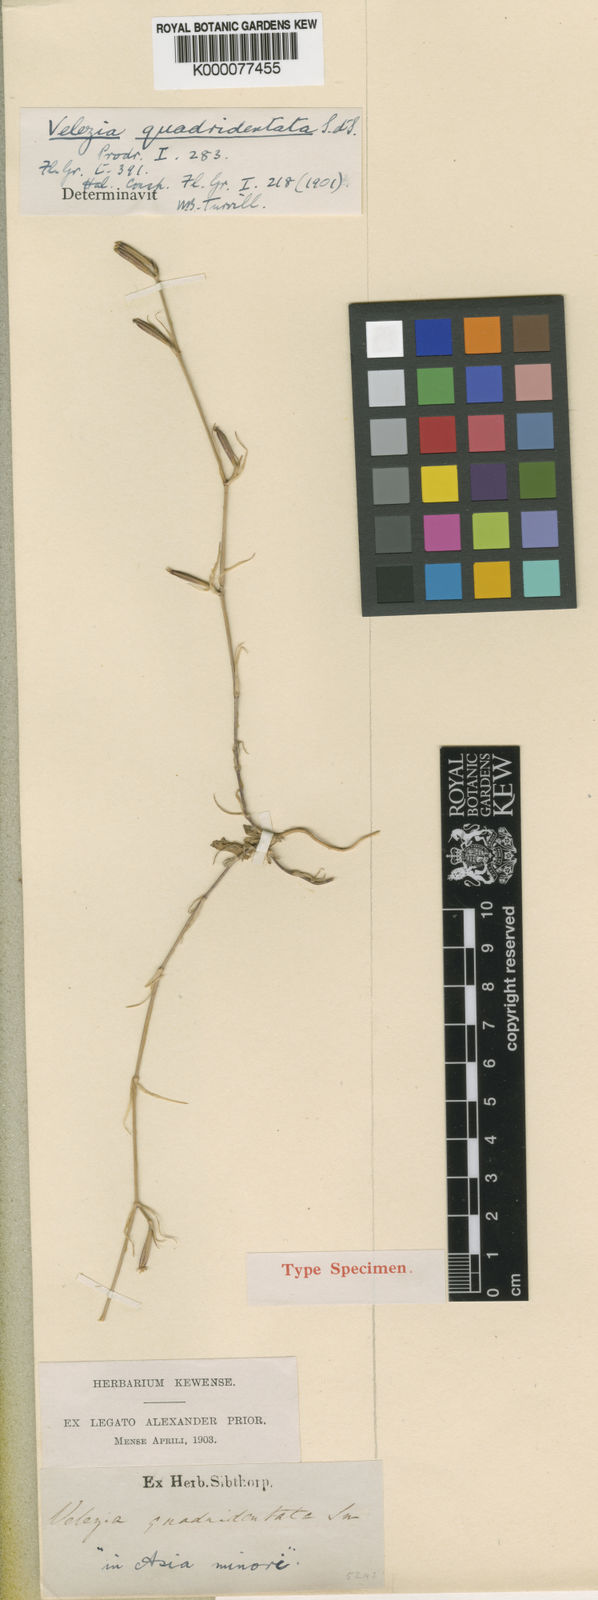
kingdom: Plantae
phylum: Tracheophyta
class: Magnoliopsida
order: Caryophyllales
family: Caryophyllaceae
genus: Dianthus
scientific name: Dianthus quadridentatus
